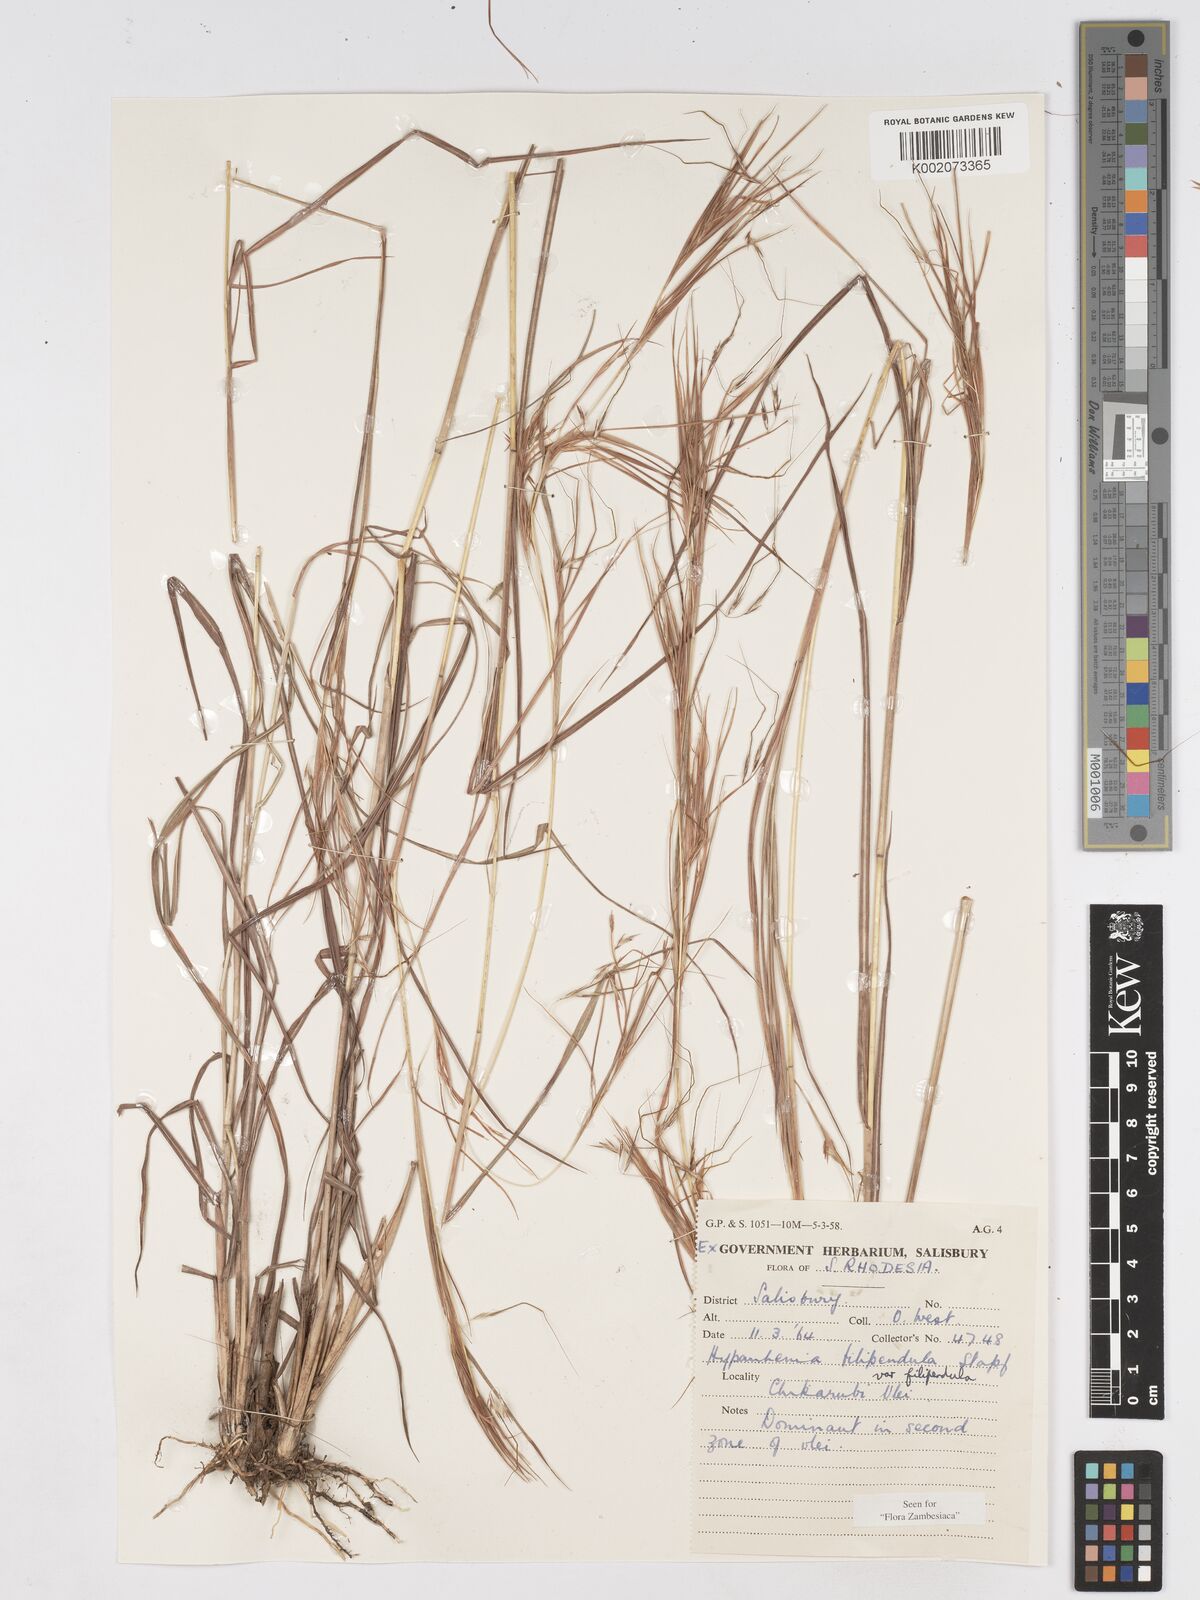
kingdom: Plantae
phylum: Tracheophyta
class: Liliopsida
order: Poales
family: Poaceae
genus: Hyparrhenia
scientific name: Hyparrhenia filipendula
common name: Tambookie grass
